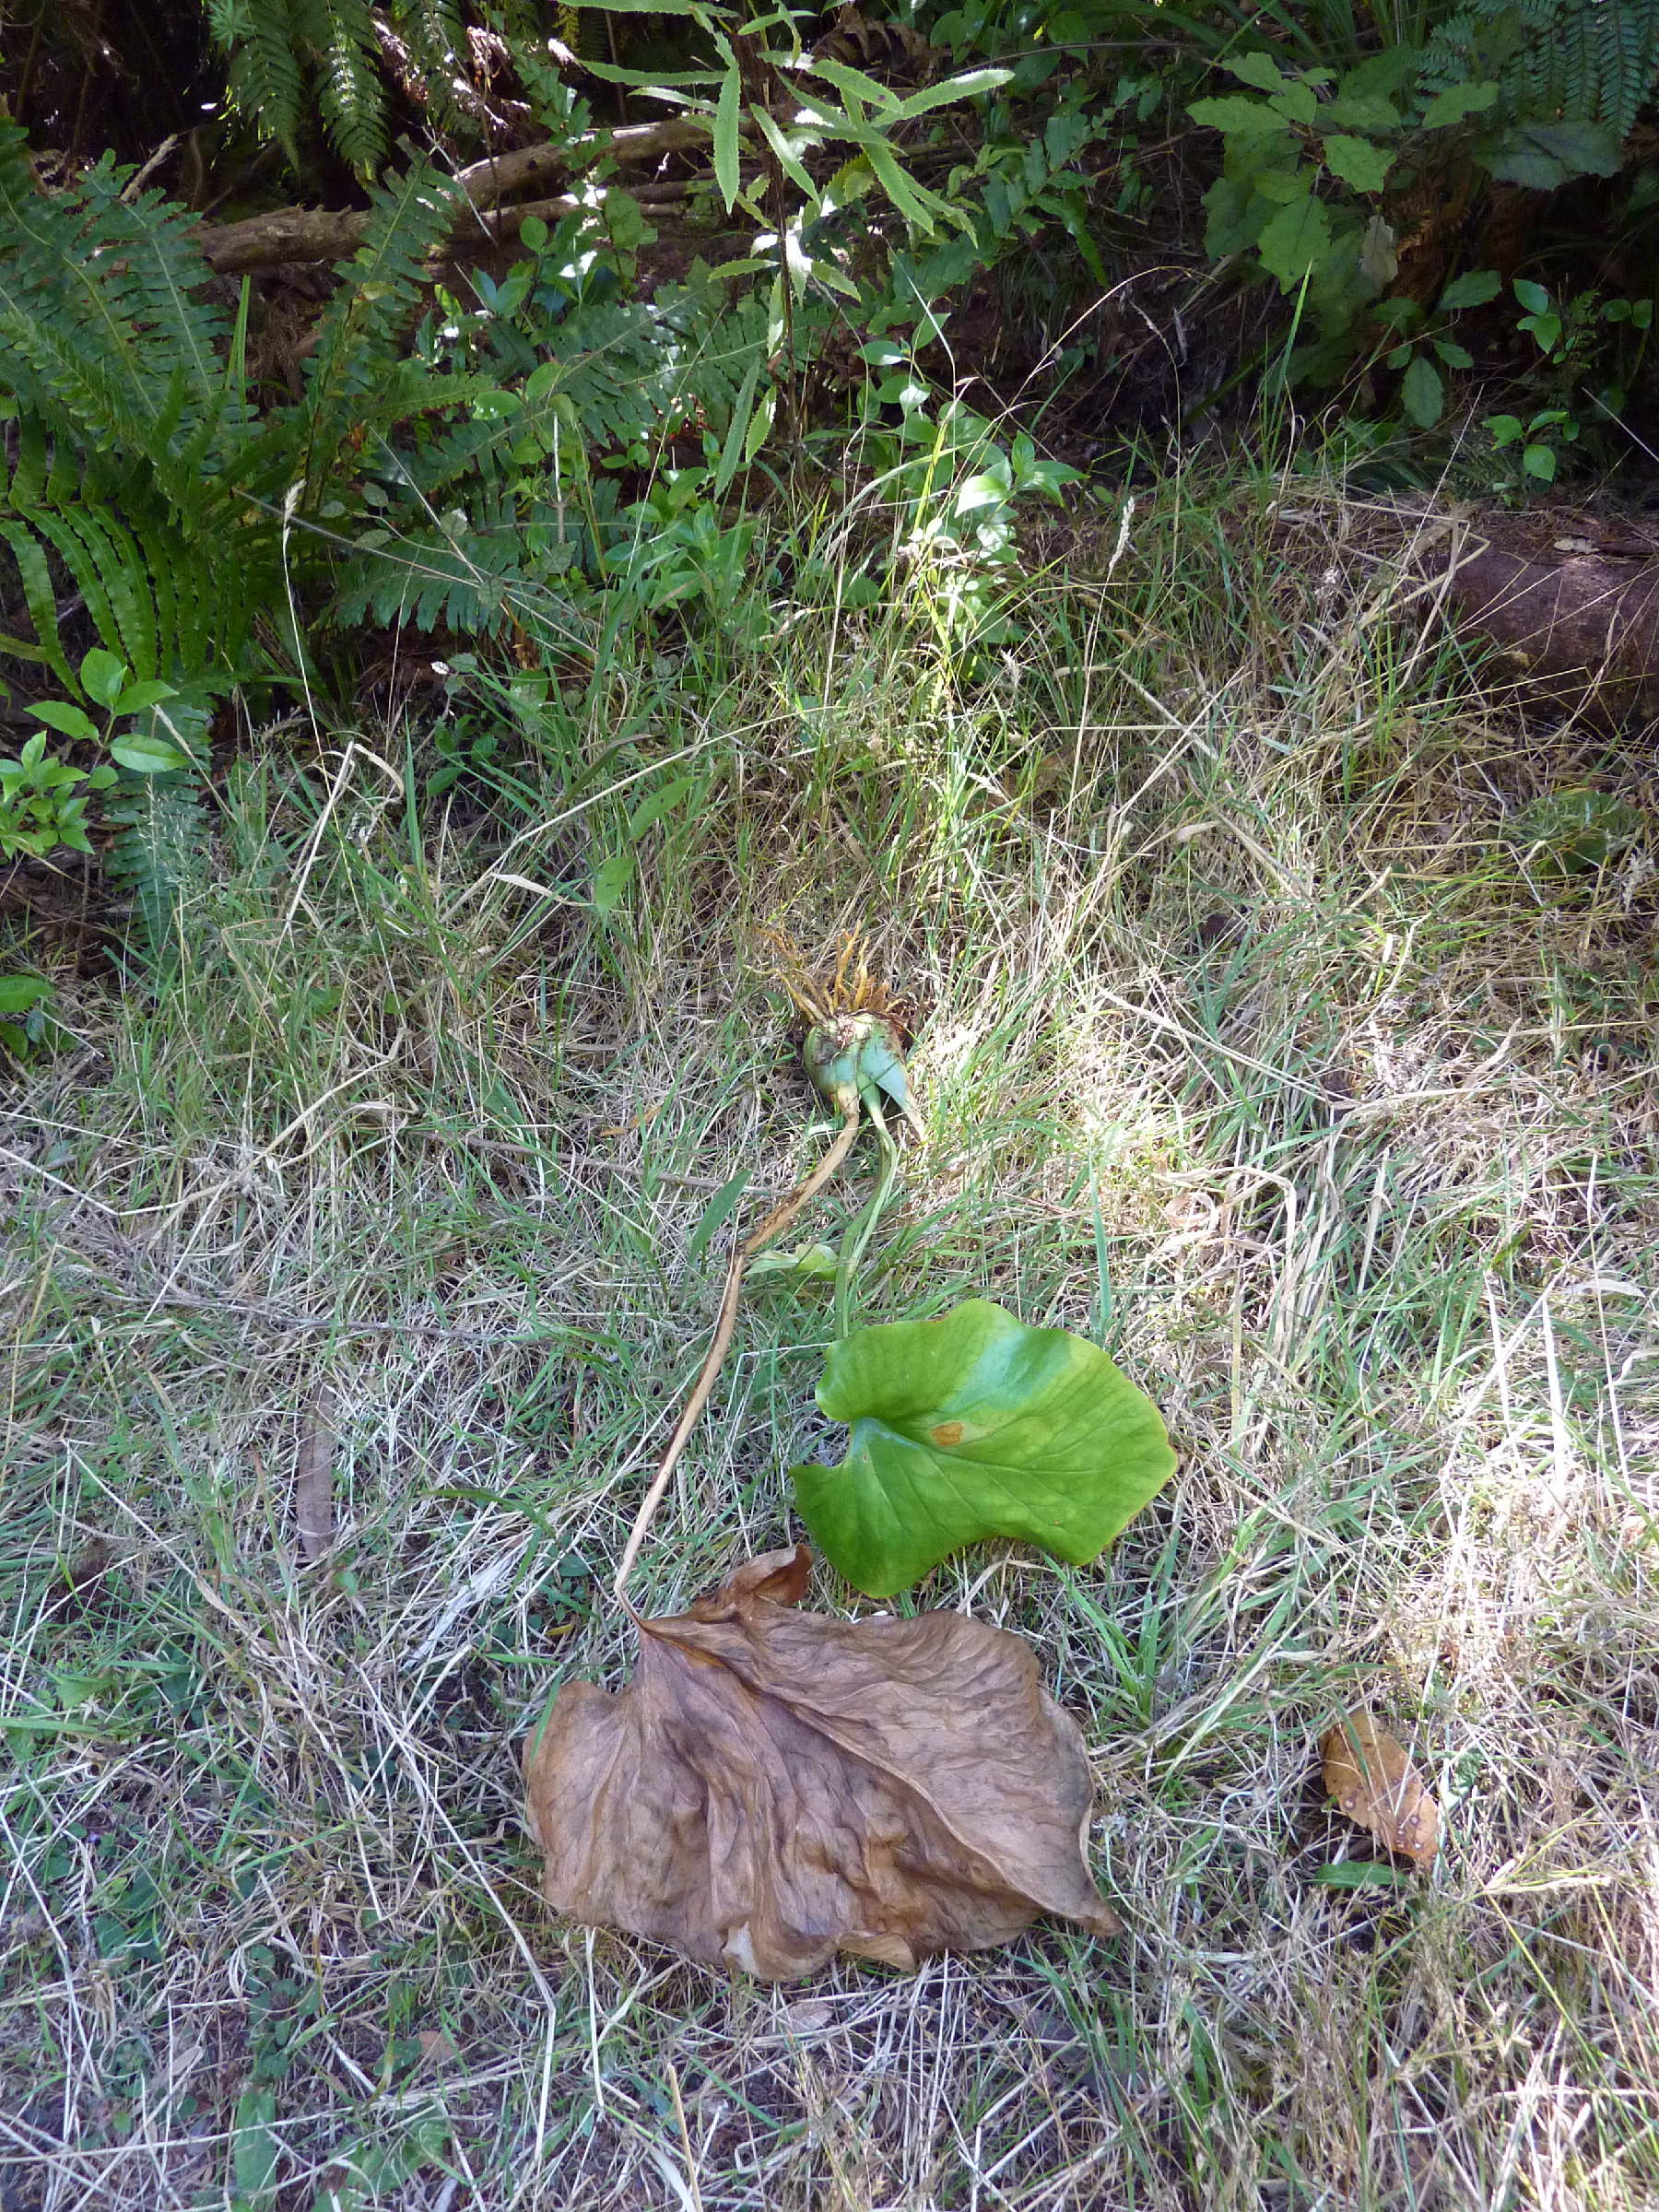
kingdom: Plantae
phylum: Tracheophyta
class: Liliopsida
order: Liliales
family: Liliaceae
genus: Cardiocrinum
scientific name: Cardiocrinum giganteum
